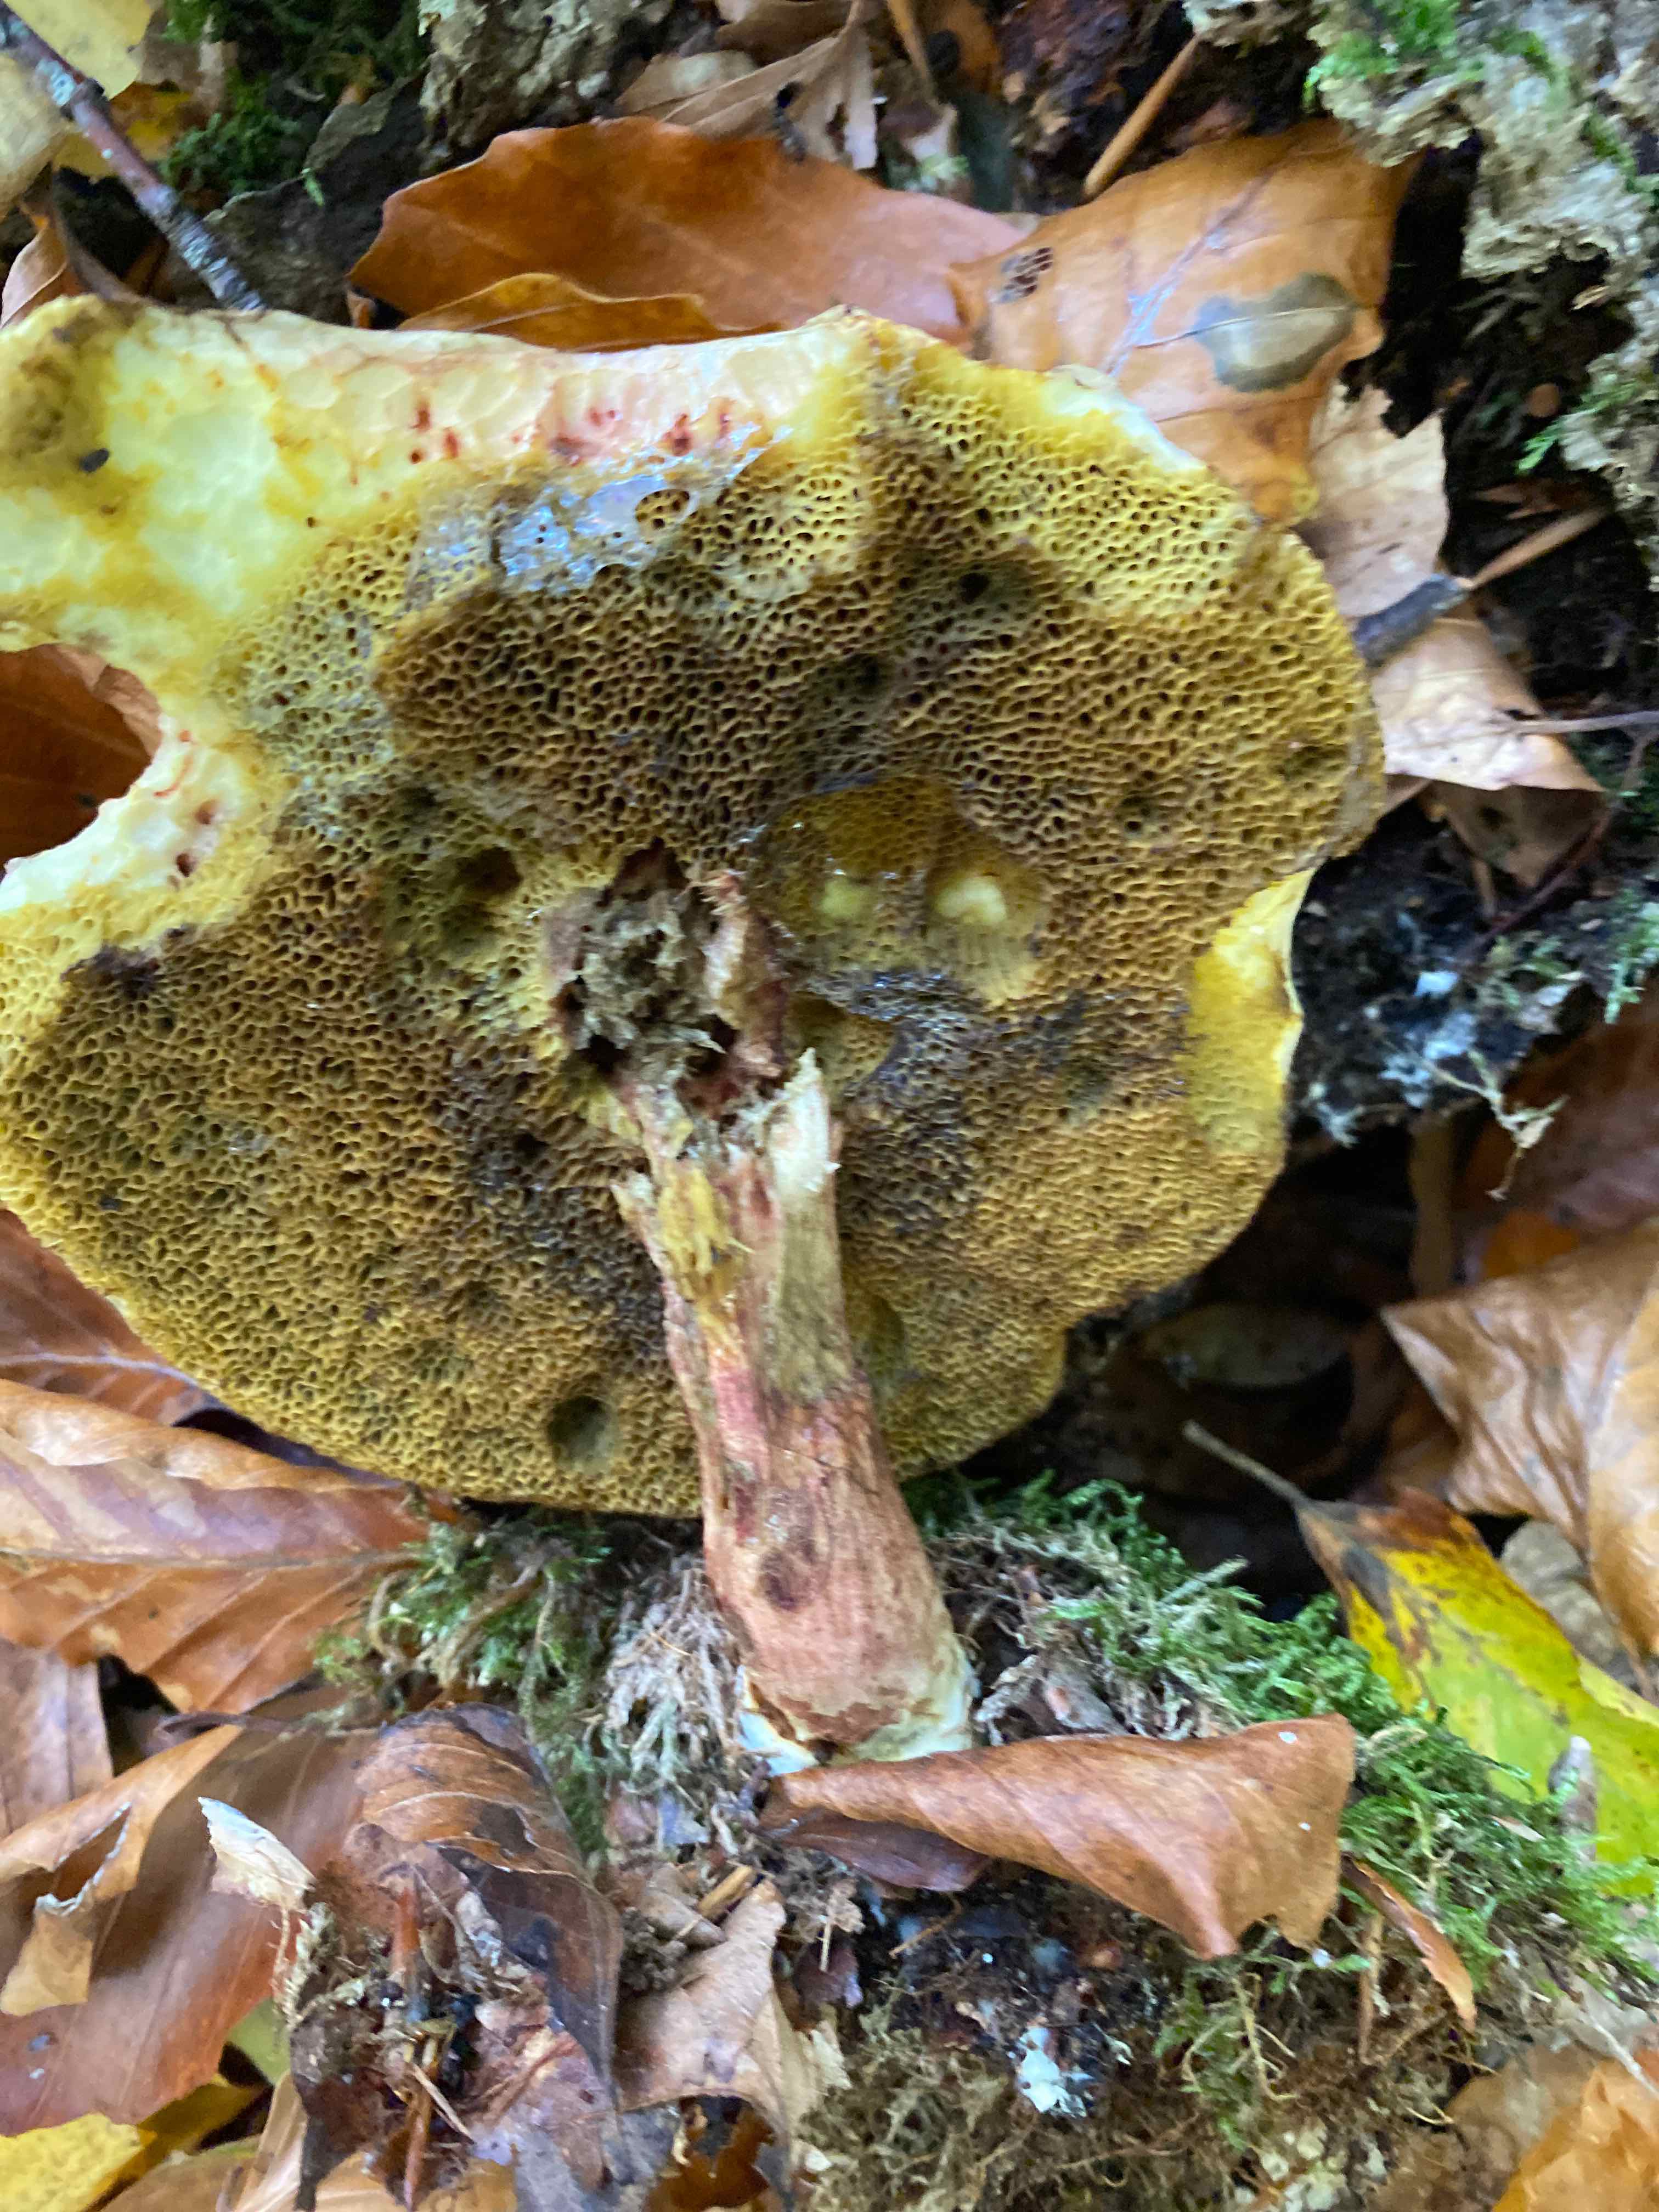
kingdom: Fungi
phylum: Basidiomycota
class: Agaricomycetes
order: Boletales
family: Boletaceae
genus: Xerocomellus
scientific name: Xerocomellus pruinatus
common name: dugget rørhat
